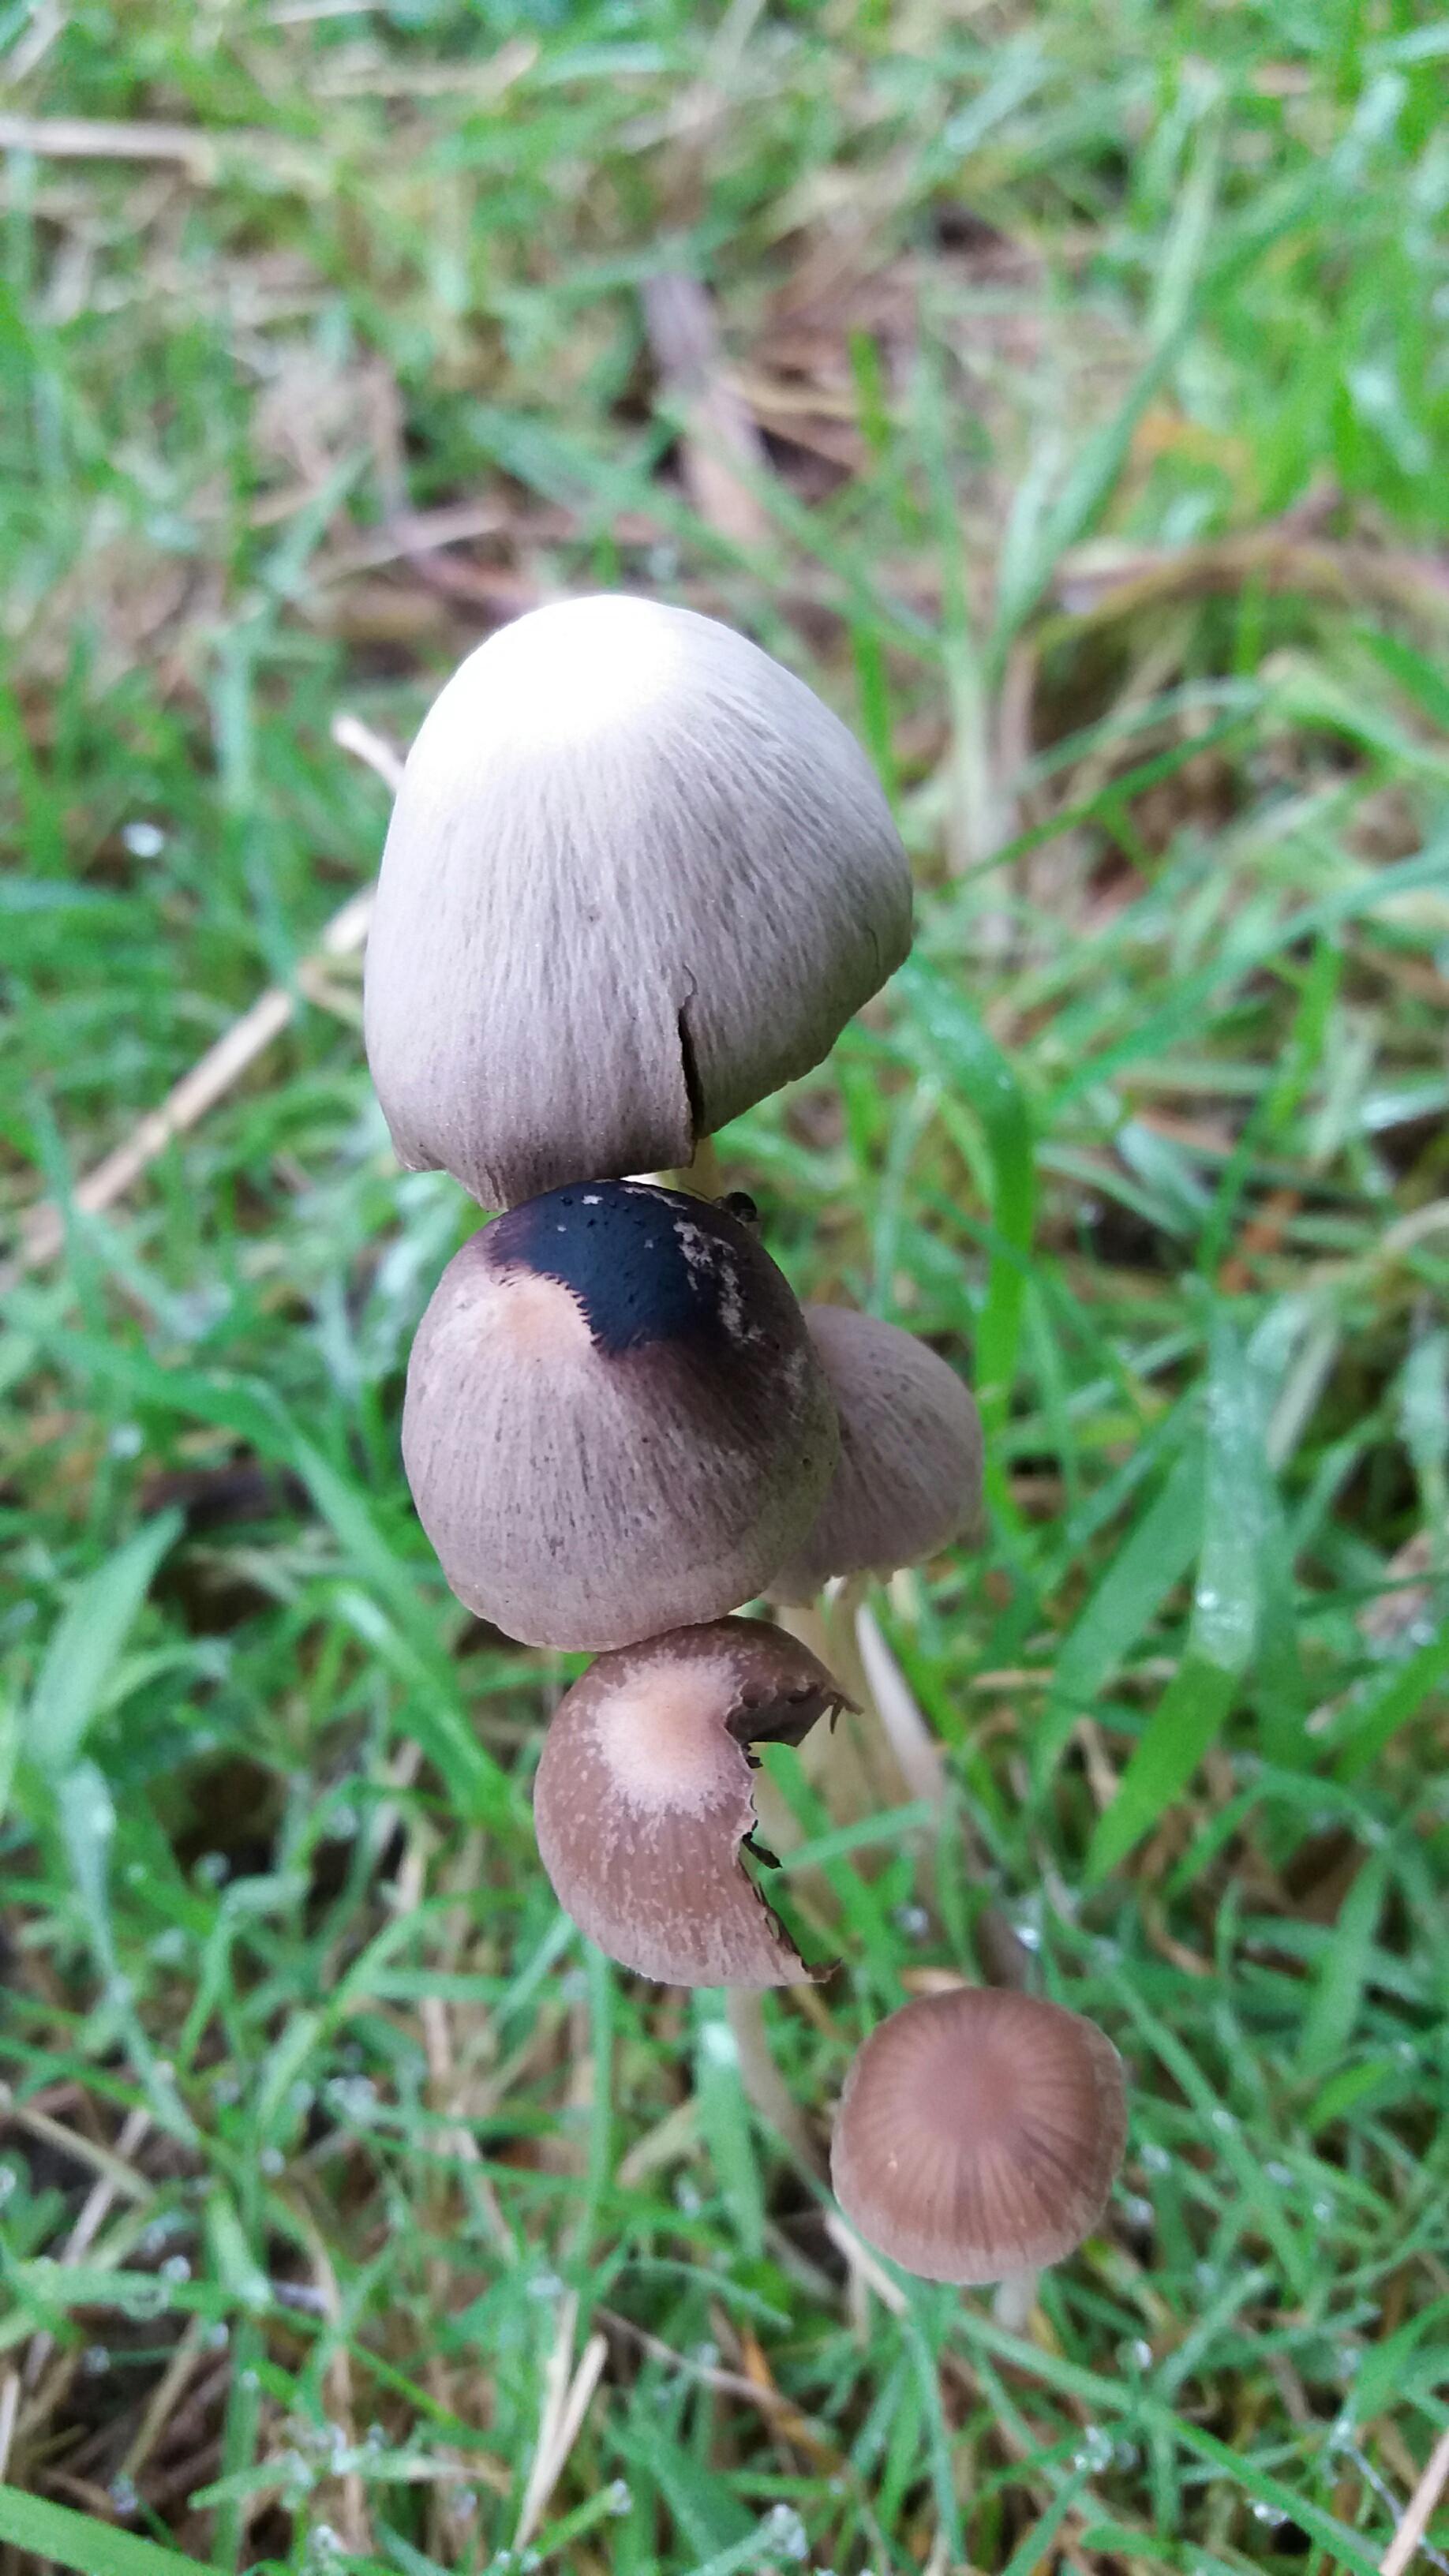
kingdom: Fungi
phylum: Basidiomycota
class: Agaricomycetes
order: Agaricales
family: Psathyrellaceae
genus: Psathyrella
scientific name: Psathyrella
